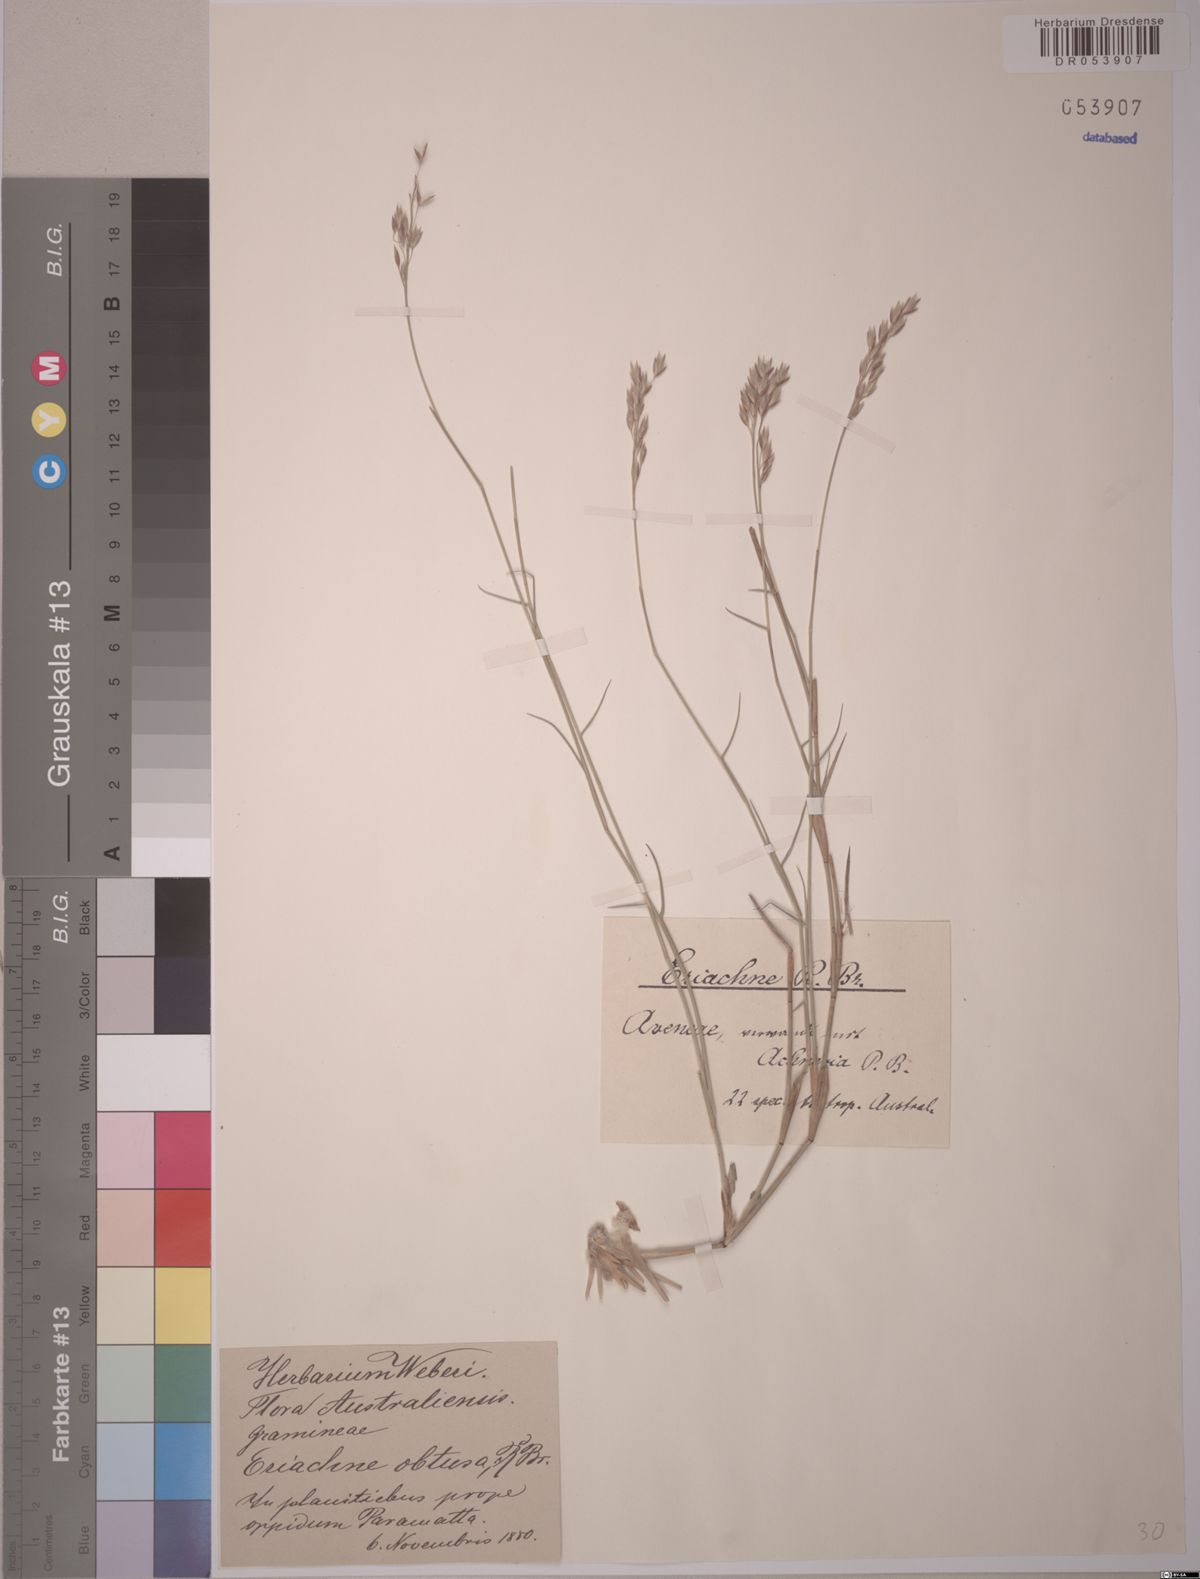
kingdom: Plantae
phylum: Tracheophyta
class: Liliopsida
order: Poales
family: Poaceae
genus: Eriachne
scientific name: Eriachne obtusa
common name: Northern wanderrie grass
